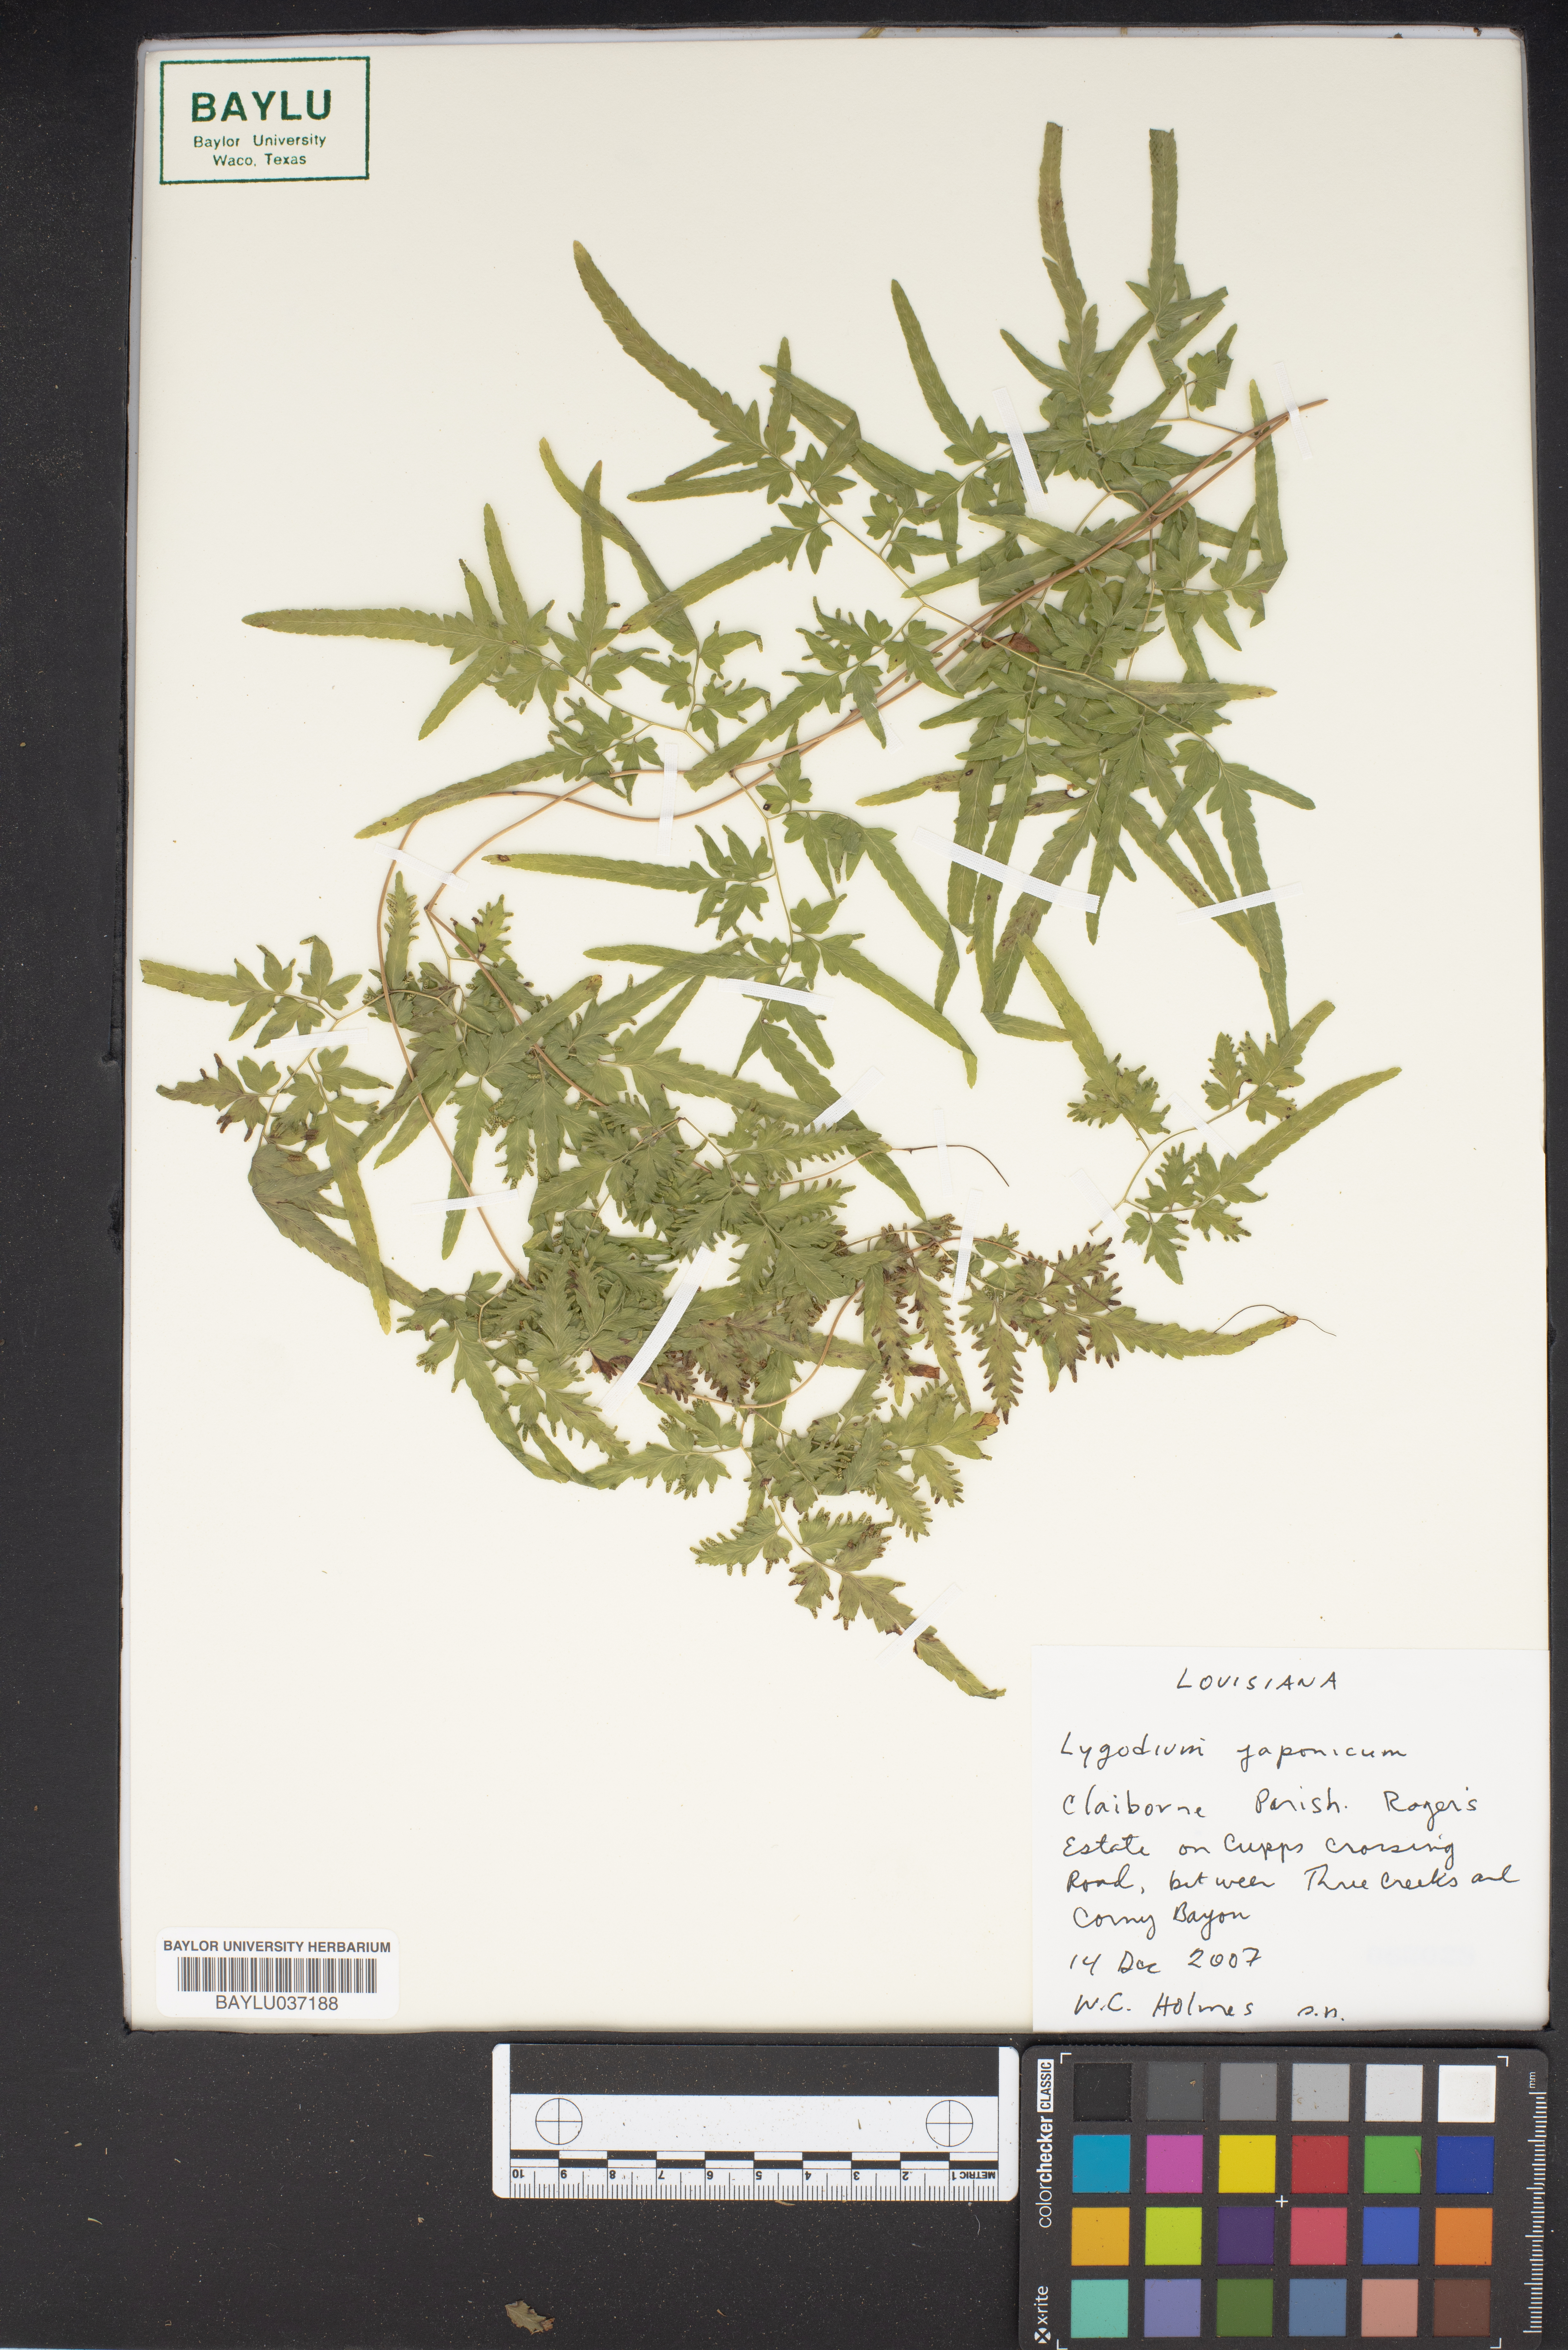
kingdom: Plantae
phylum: Tracheophyta
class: Polypodiopsida
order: Schizaeales
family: Lygodiaceae
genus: Lygodium
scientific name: Lygodium japonicum
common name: Japanese climbing fern
